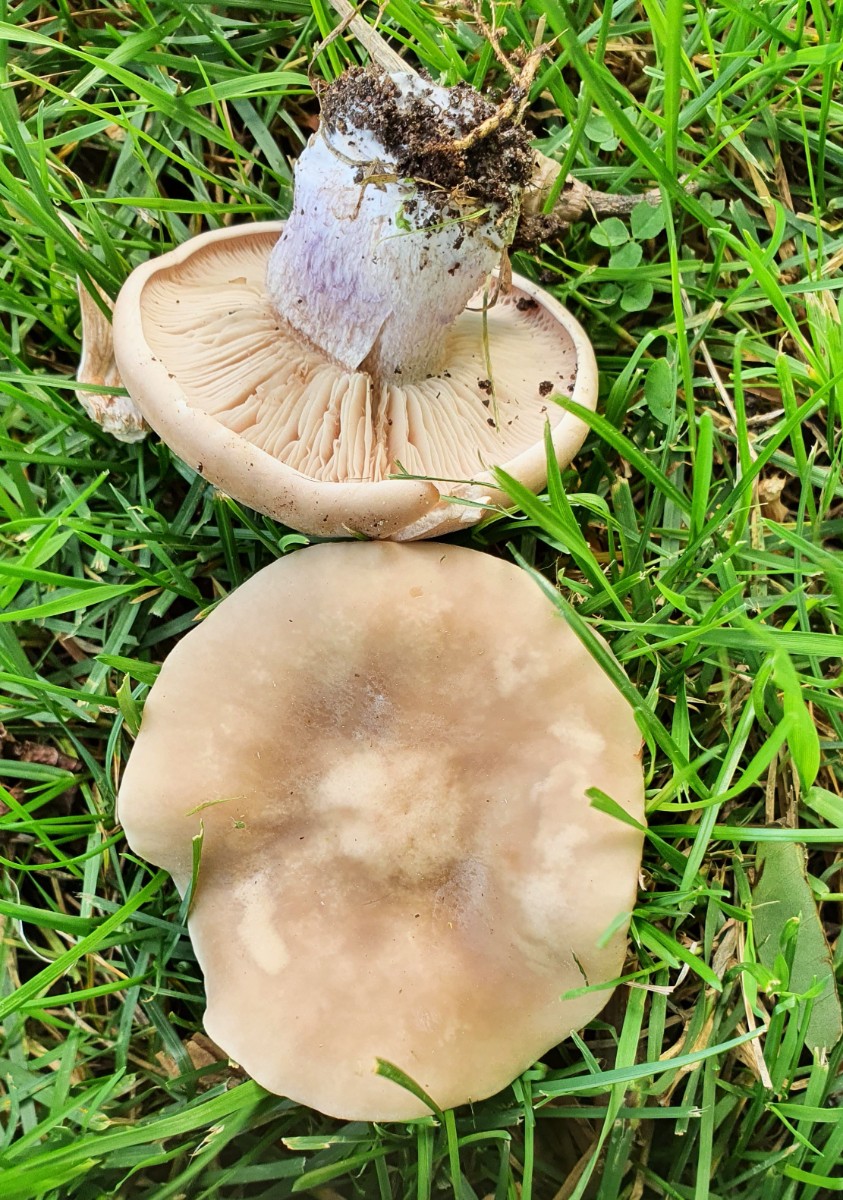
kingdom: Fungi
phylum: Basidiomycota
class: Agaricomycetes
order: Agaricales
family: Tricholomataceae
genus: Lepista
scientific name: Lepista personata
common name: bleg hekseringshat
